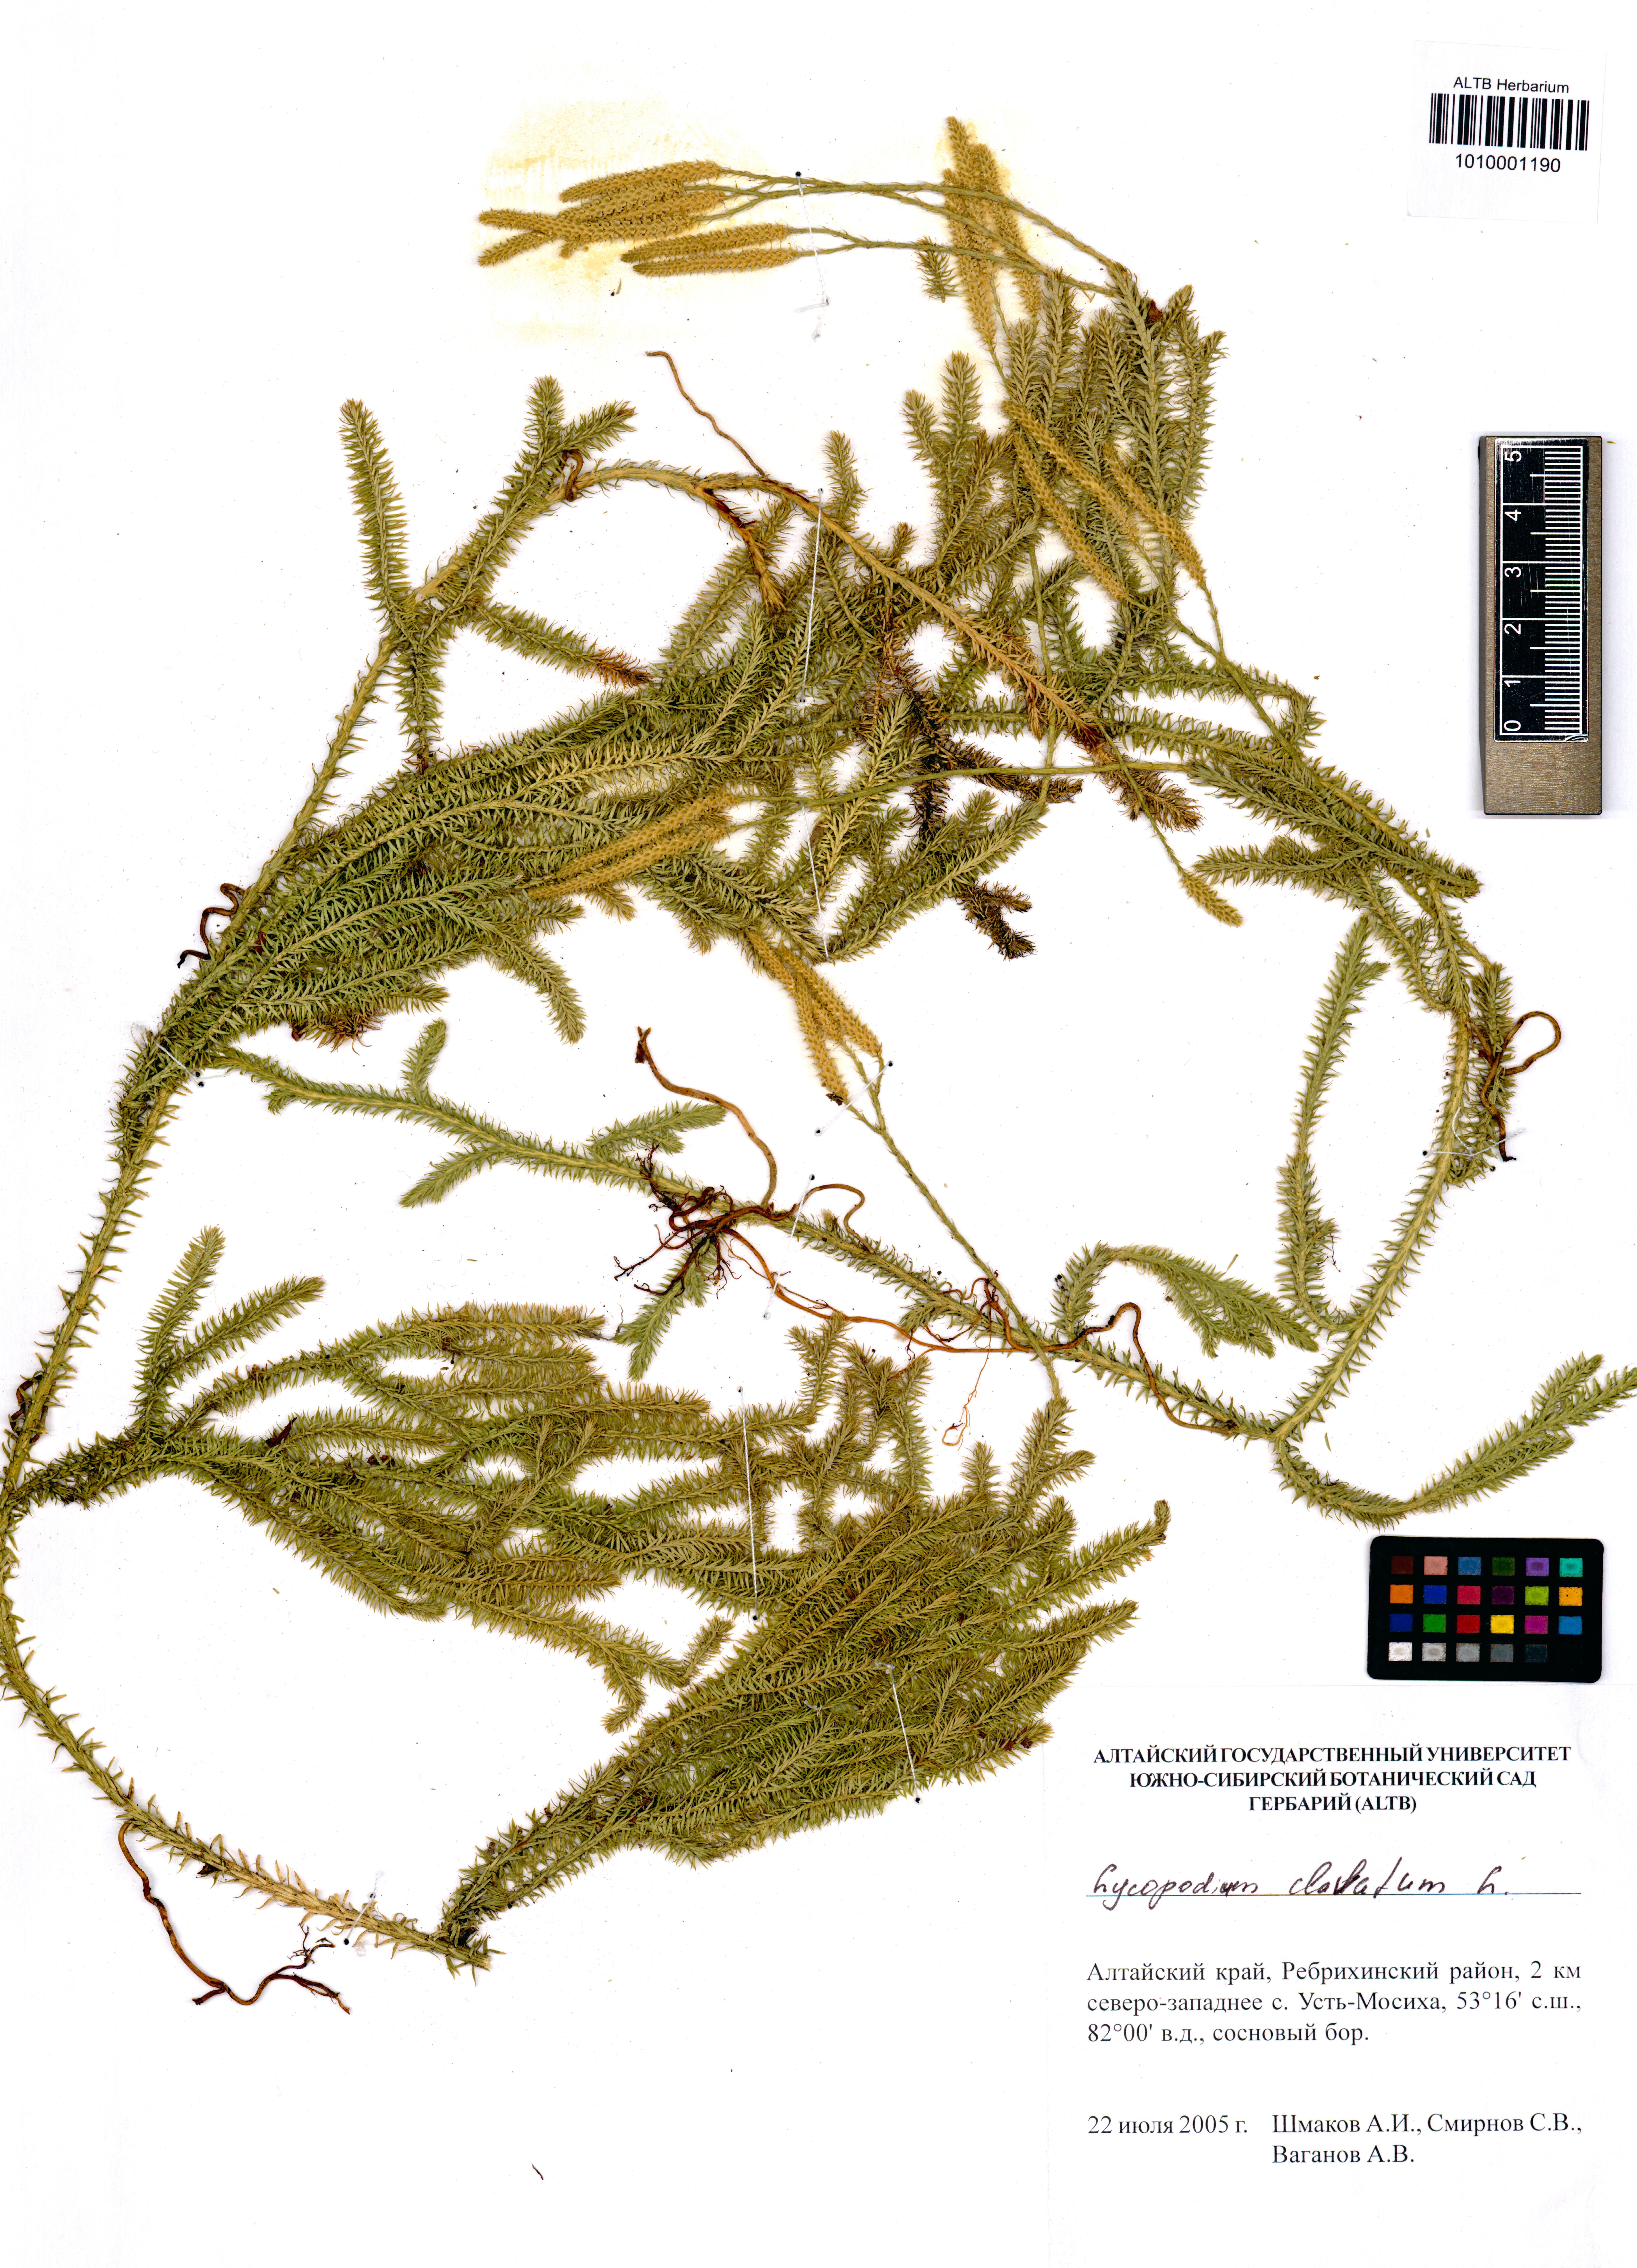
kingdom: Plantae
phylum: Tracheophyta
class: Lycopodiopsida
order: Lycopodiales
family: Lycopodiaceae
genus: Lycopodium
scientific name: Lycopodium clavatum
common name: Stag's-horn clubmoss
